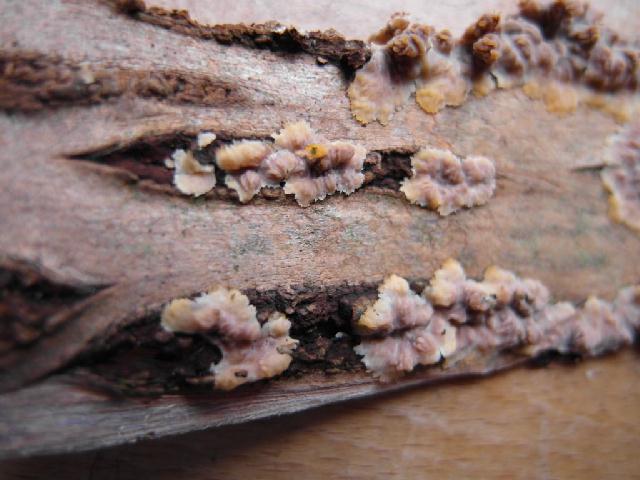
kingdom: Fungi
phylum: Basidiomycota
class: Agaricomycetes
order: Polyporales
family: Meruliaceae
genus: Phlebia
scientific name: Phlebia radiata
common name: stråle-åresvamp
